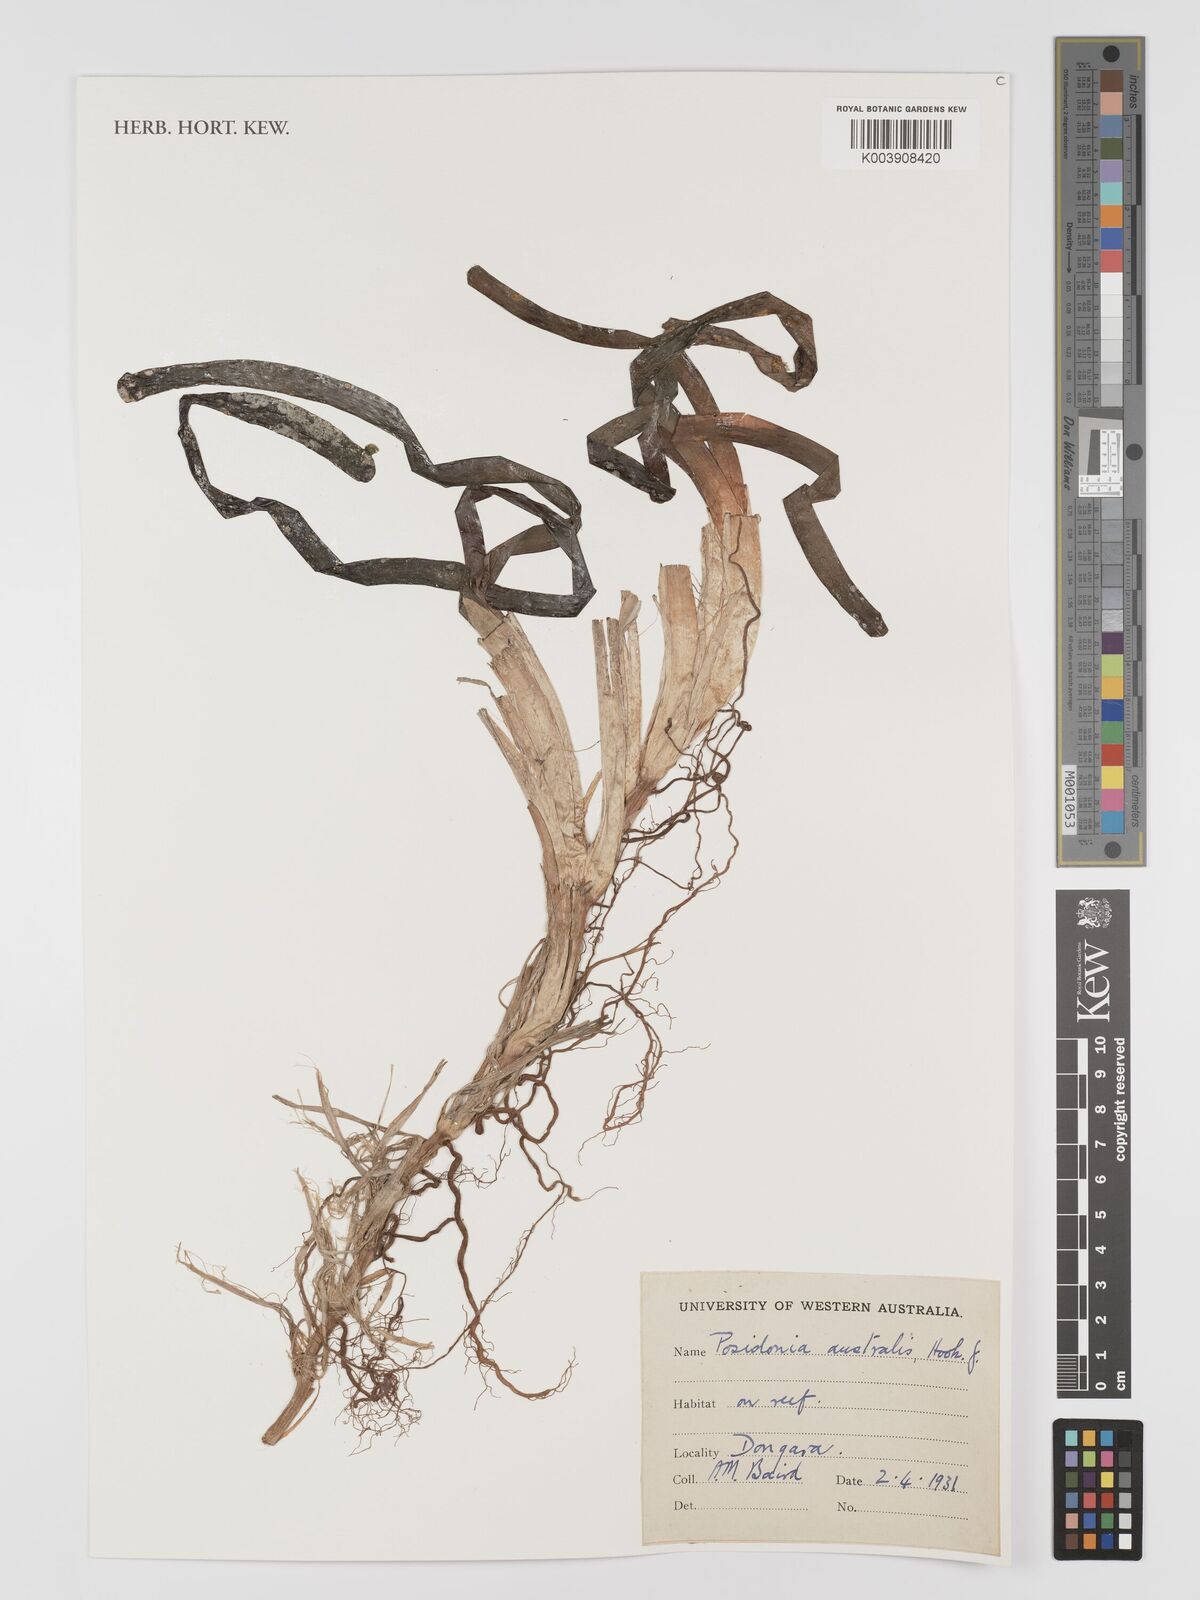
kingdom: Plantae
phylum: Tracheophyta
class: Liliopsida
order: Alismatales
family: Posidoniaceae
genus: Posidonia
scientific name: Posidonia australis
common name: Species code: pa
